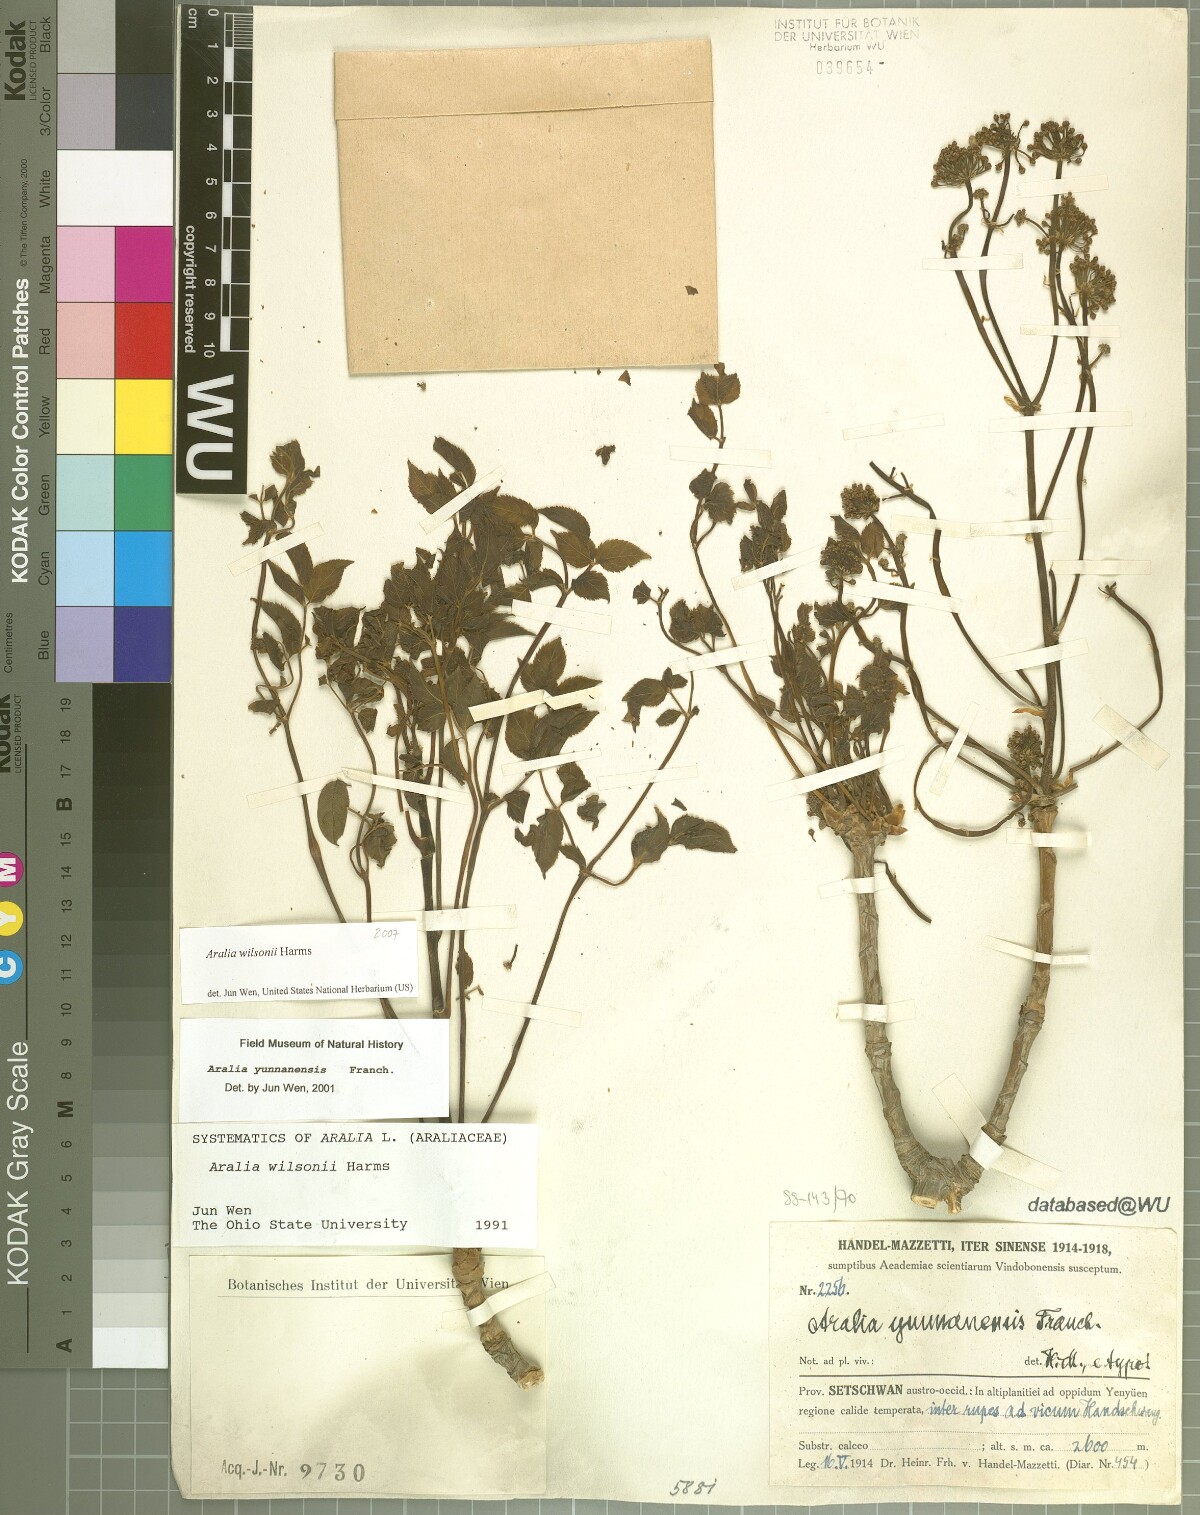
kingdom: Plantae
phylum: Tracheophyta
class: Magnoliopsida
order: Apiales
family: Araliaceae
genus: Aralia
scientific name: Aralia wilsonii
